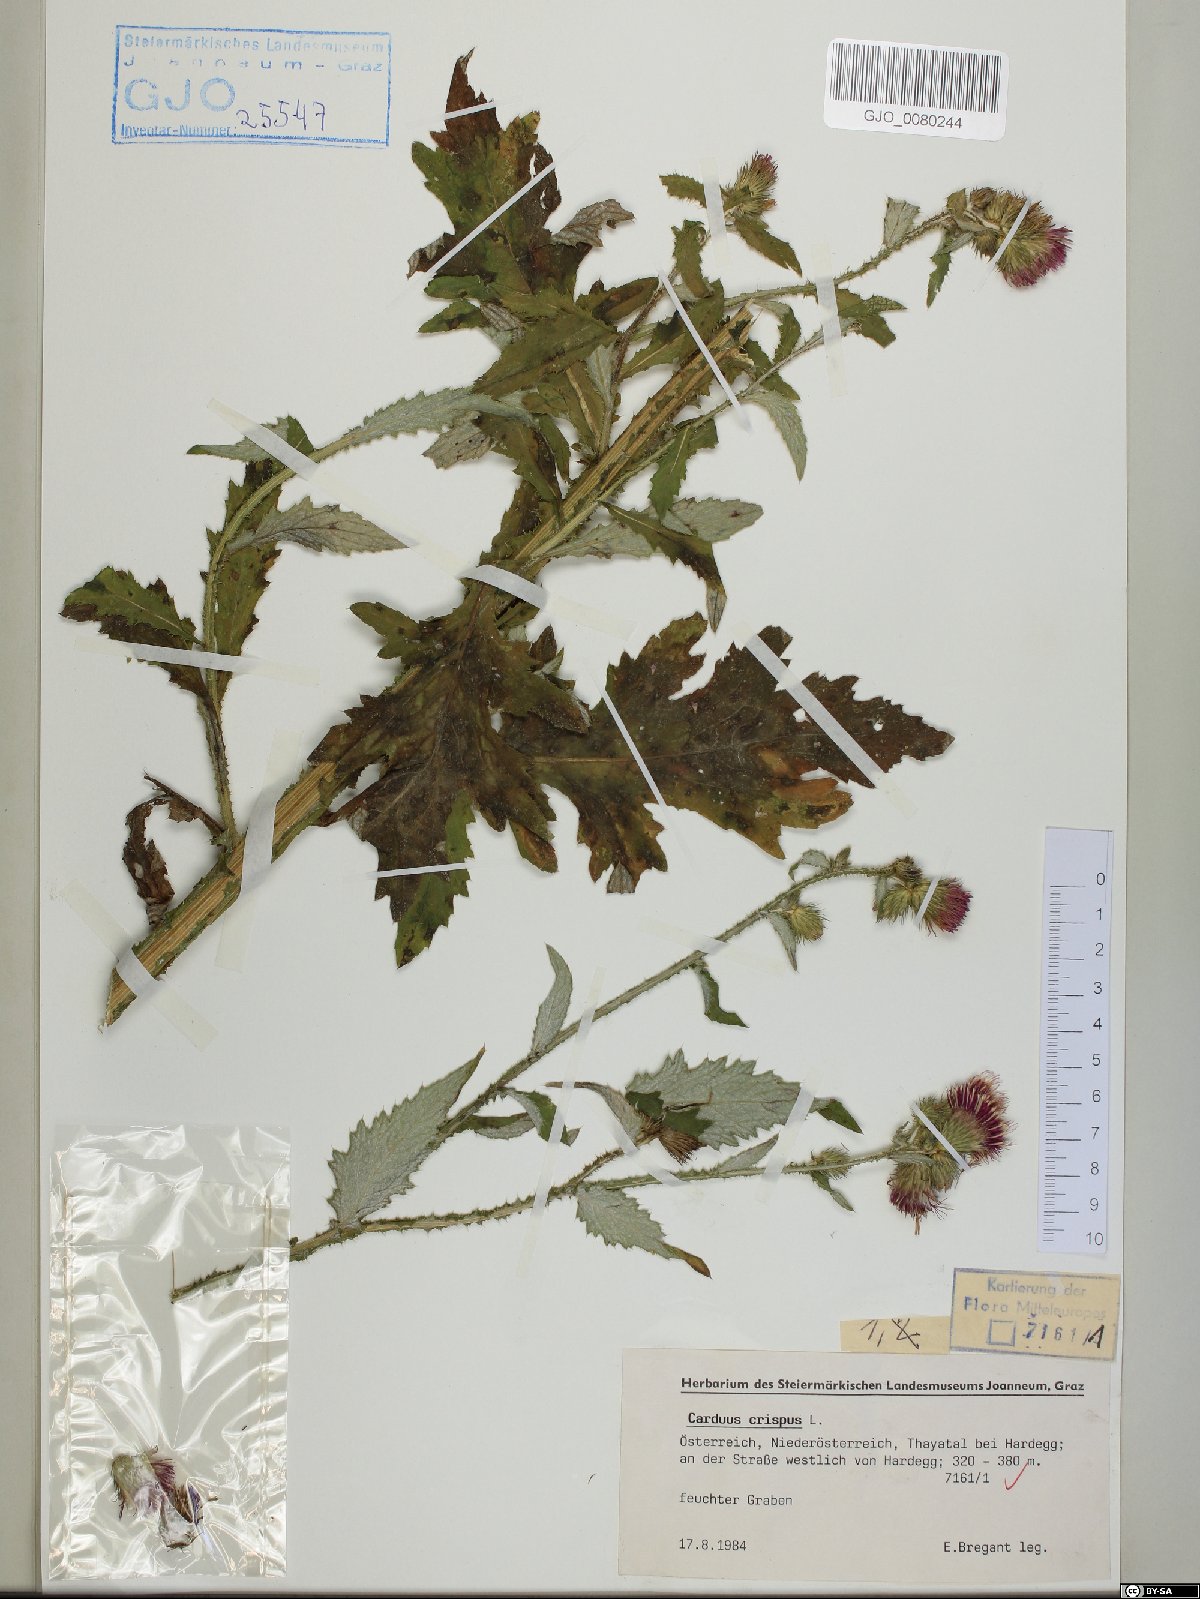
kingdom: Plantae
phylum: Tracheophyta
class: Magnoliopsida
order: Asterales
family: Asteraceae
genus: Carduus
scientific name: Carduus crispus
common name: Welted thistle
